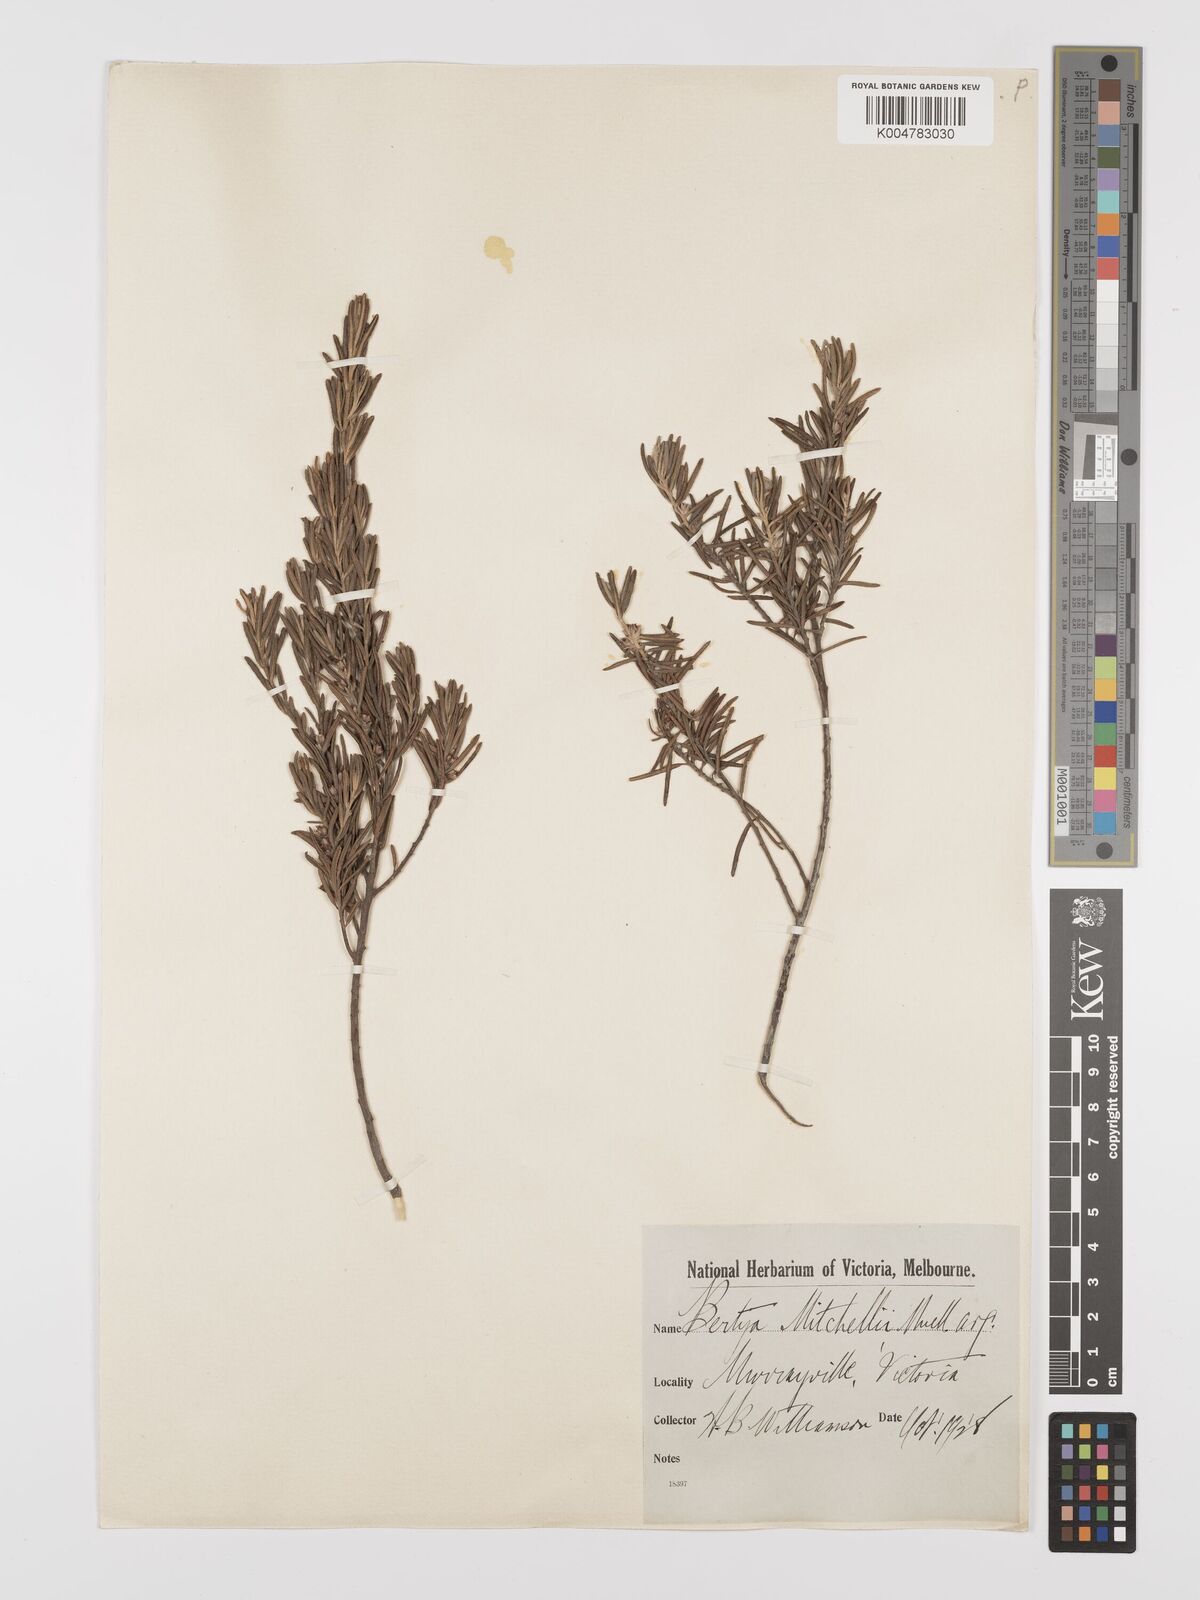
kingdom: Plantae
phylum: Tracheophyta
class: Magnoliopsida
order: Malpighiales
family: Euphorbiaceae
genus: Bertya
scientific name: Bertya oleifolia
